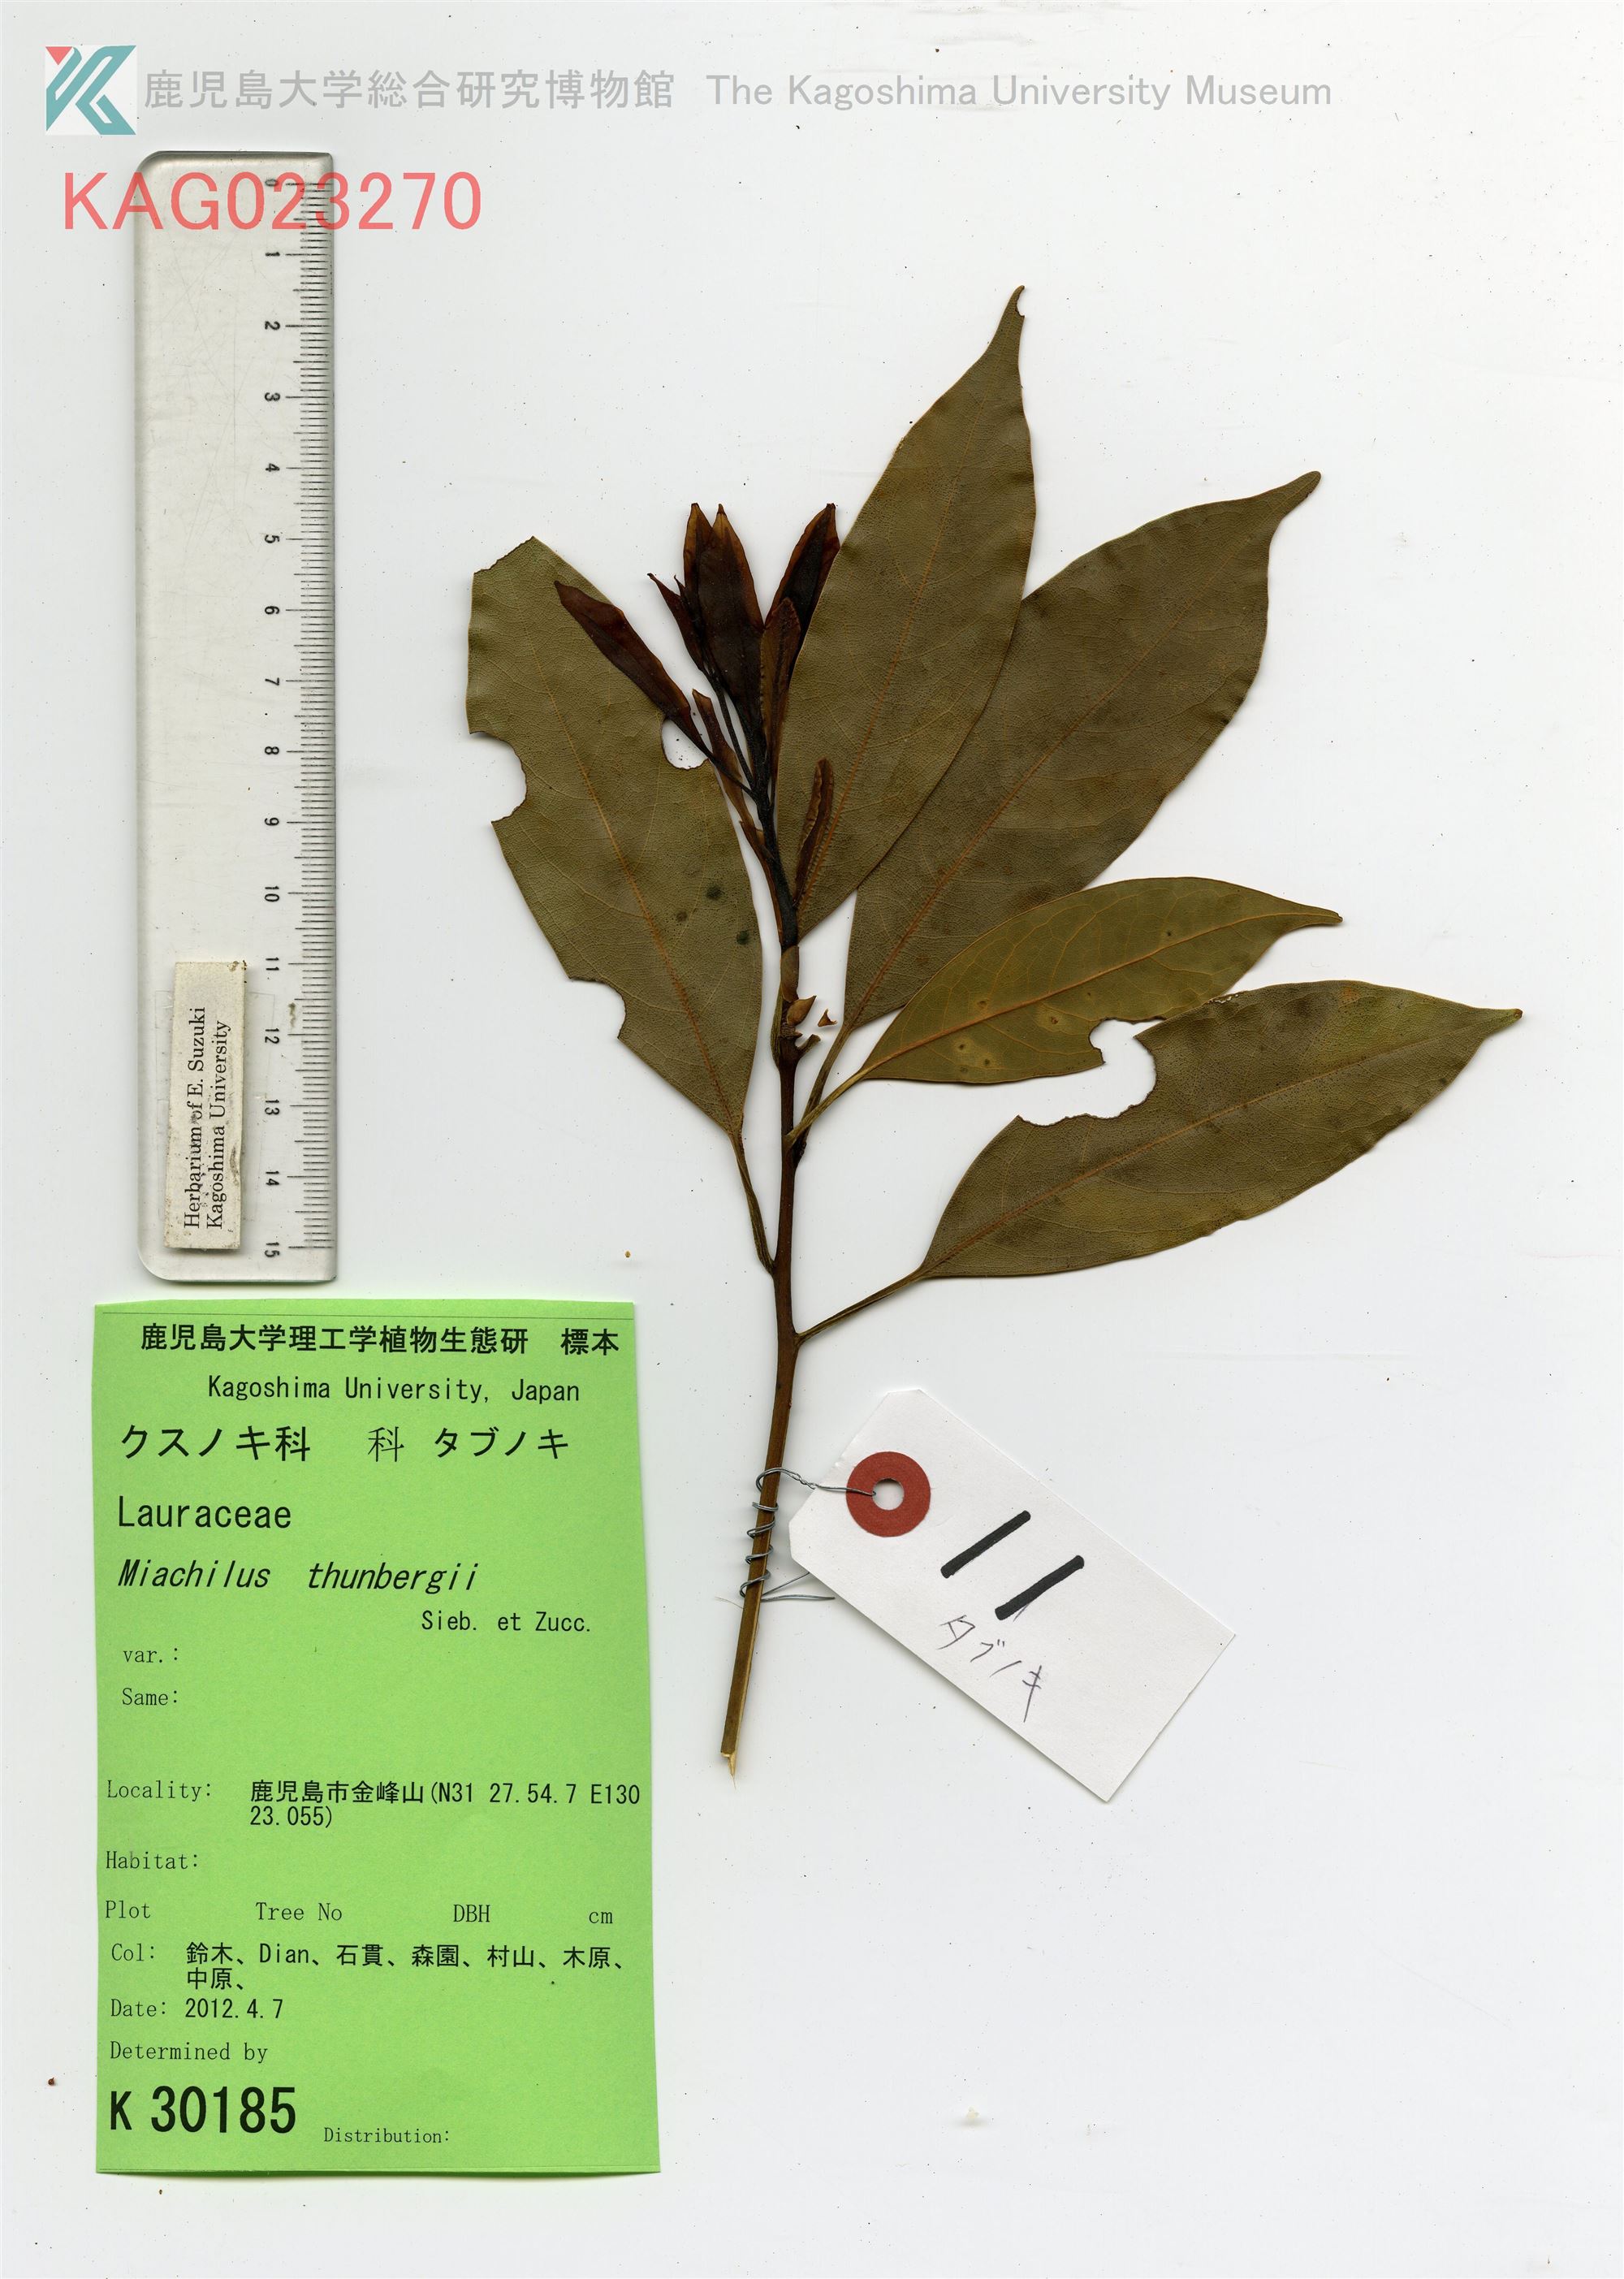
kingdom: Plantae
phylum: Tracheophyta
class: Magnoliopsida
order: Laurales
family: Lauraceae
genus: Machilus
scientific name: Machilus thunbergii
